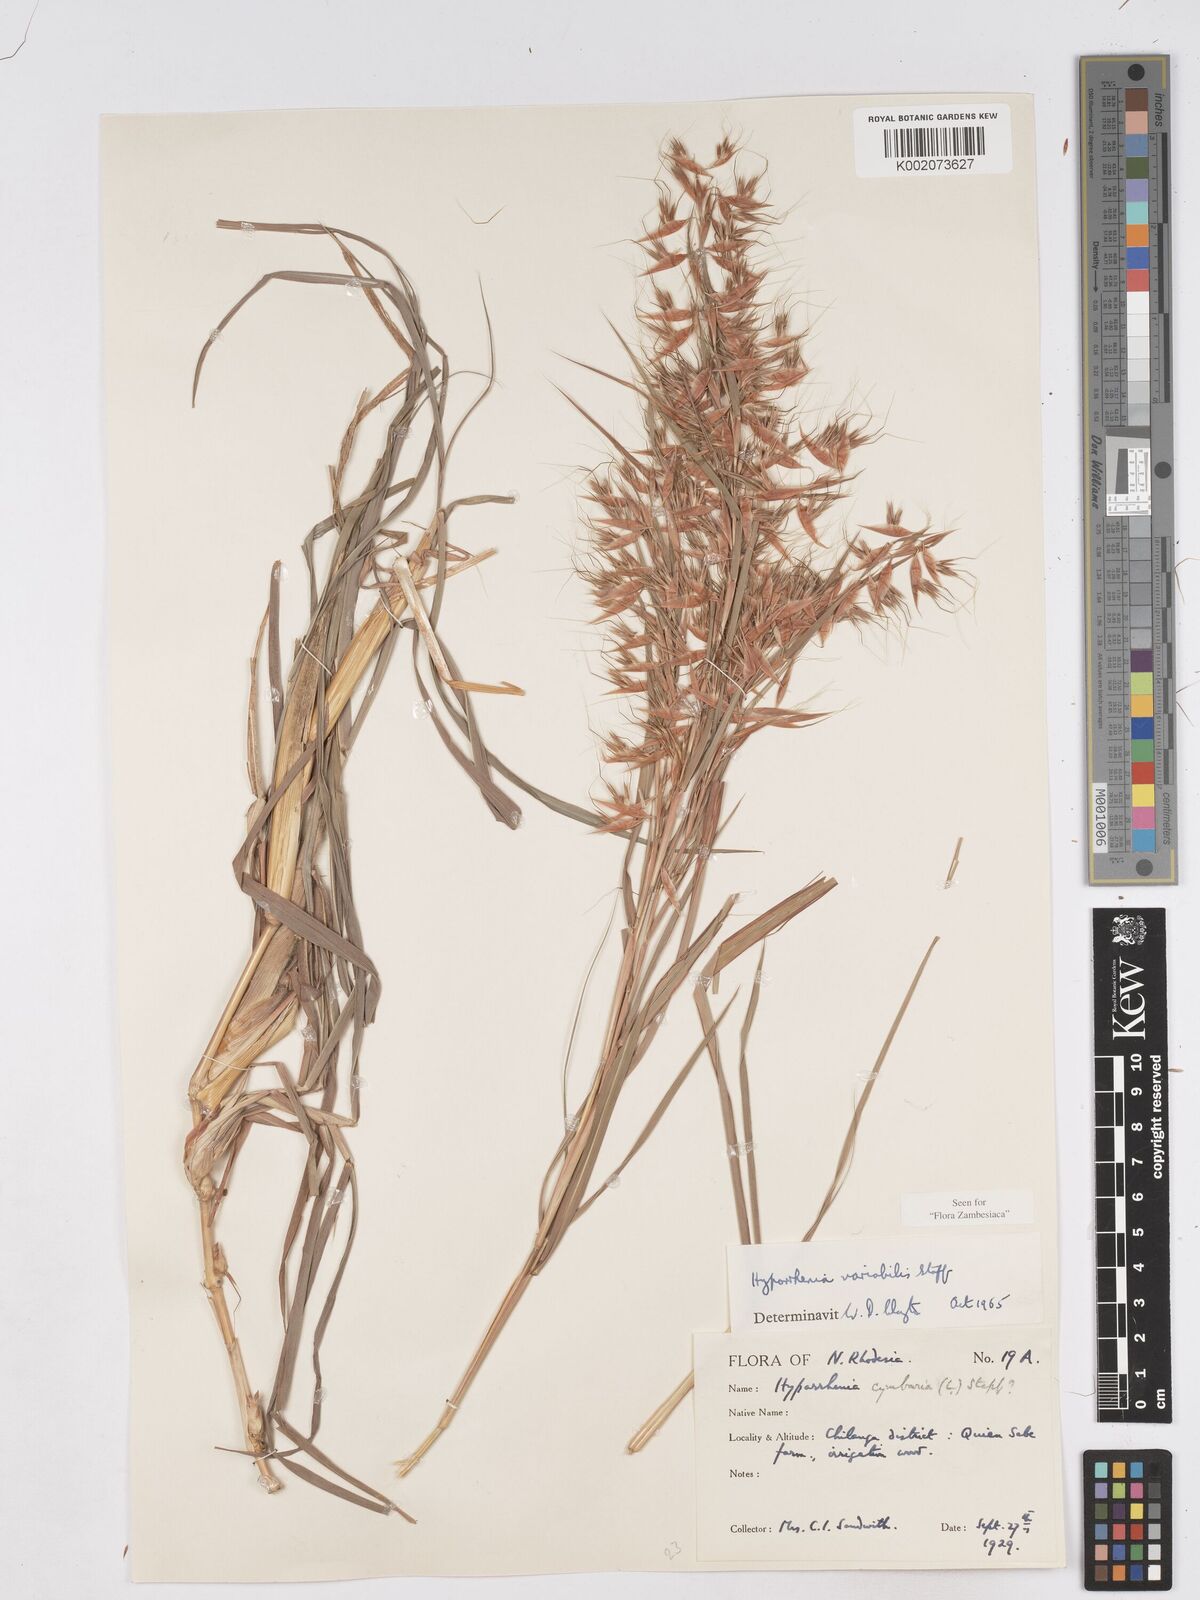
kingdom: Plantae
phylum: Tracheophyta
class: Liliopsida
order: Poales
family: Poaceae
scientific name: Poaceae
